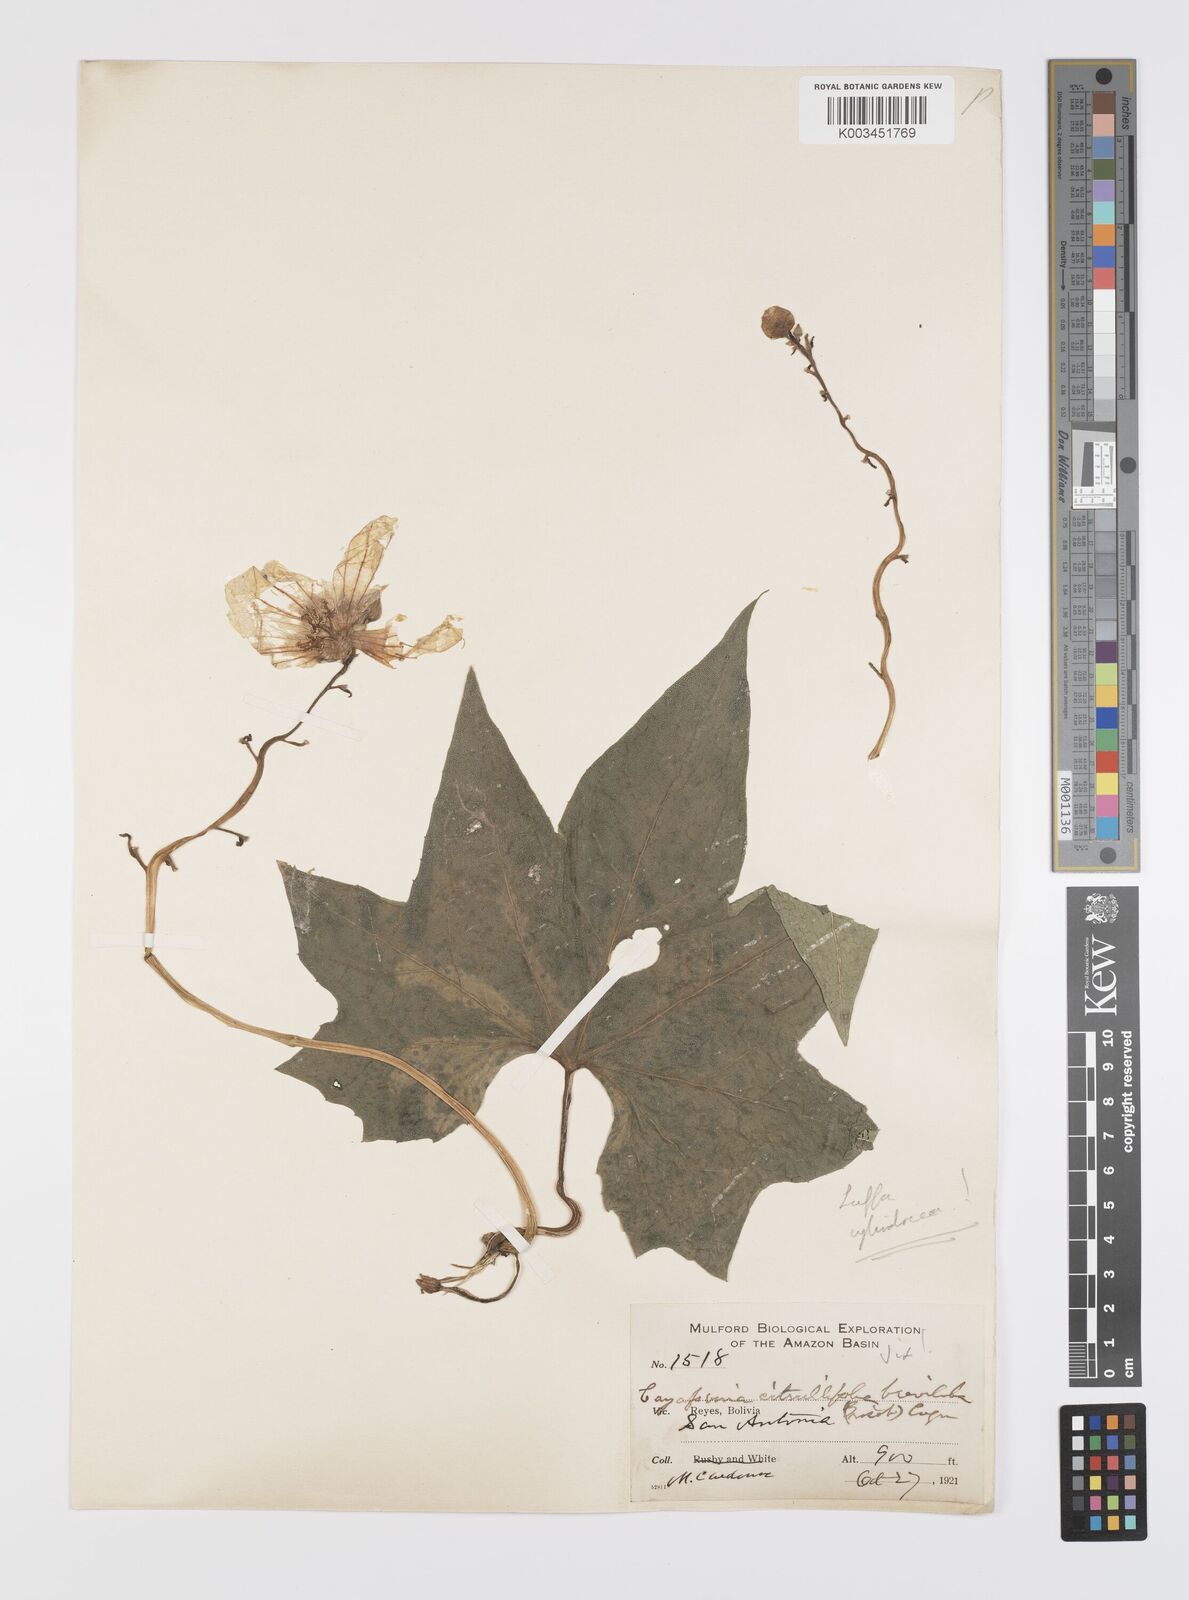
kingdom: Plantae
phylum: Tracheophyta
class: Magnoliopsida
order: Cucurbitales
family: Cucurbitaceae
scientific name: Cucurbitaceae
